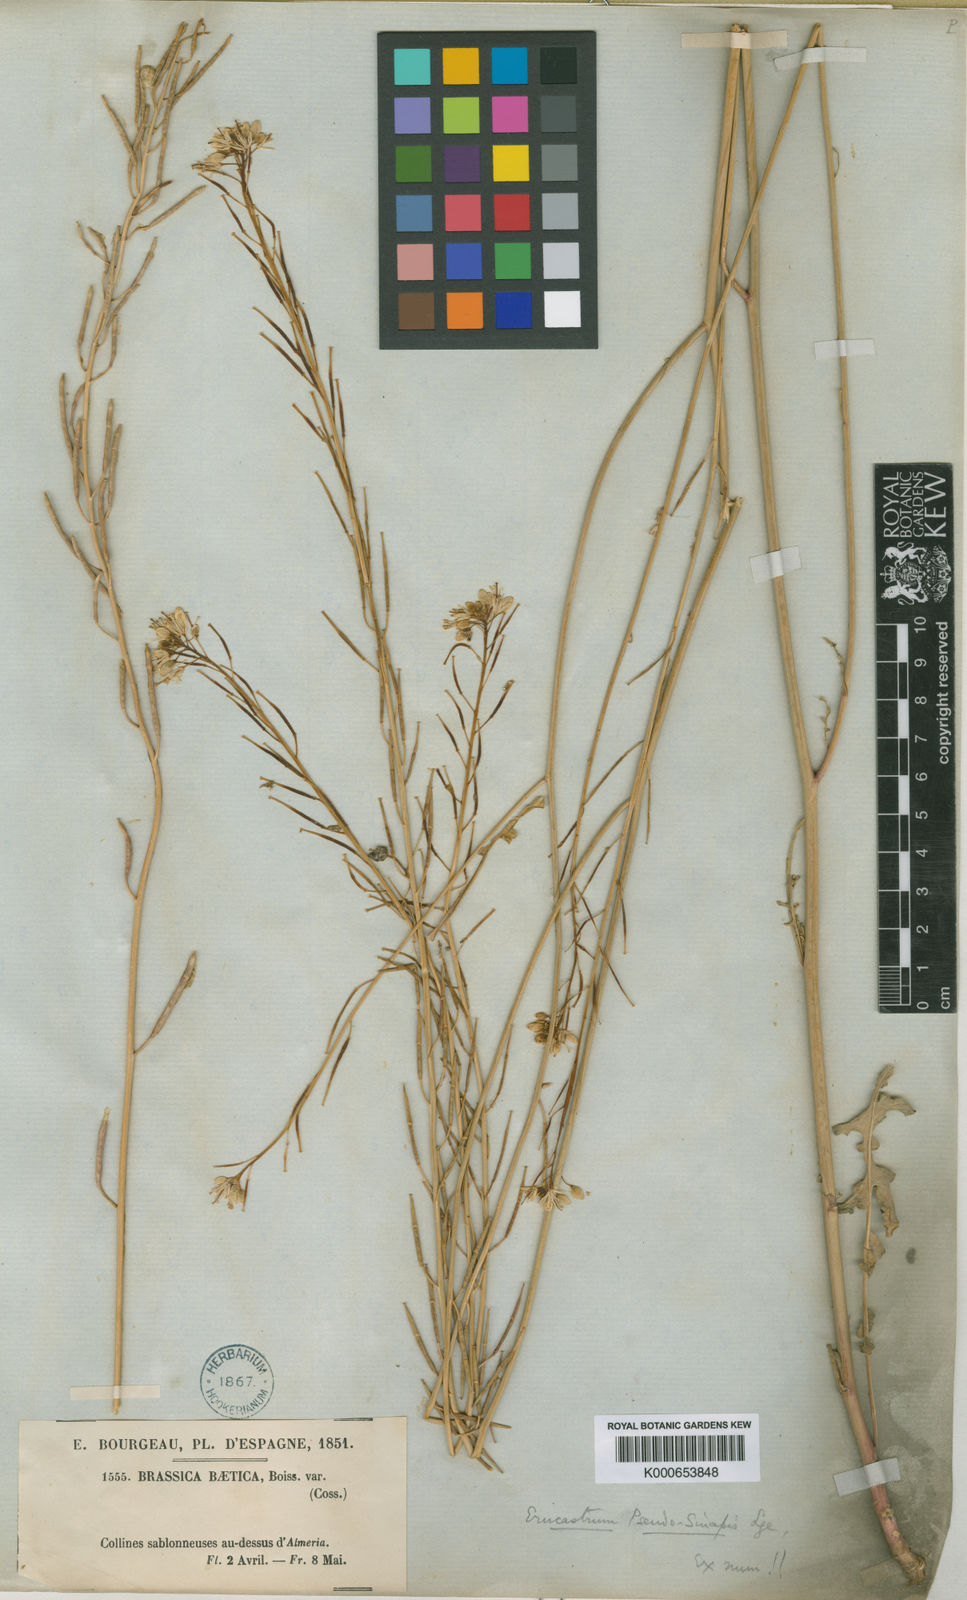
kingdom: Plantae
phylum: Tracheophyta
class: Magnoliopsida
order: Brassicales
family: Brassicaceae
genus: Erucastrum
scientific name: Erucastrum virgatum
